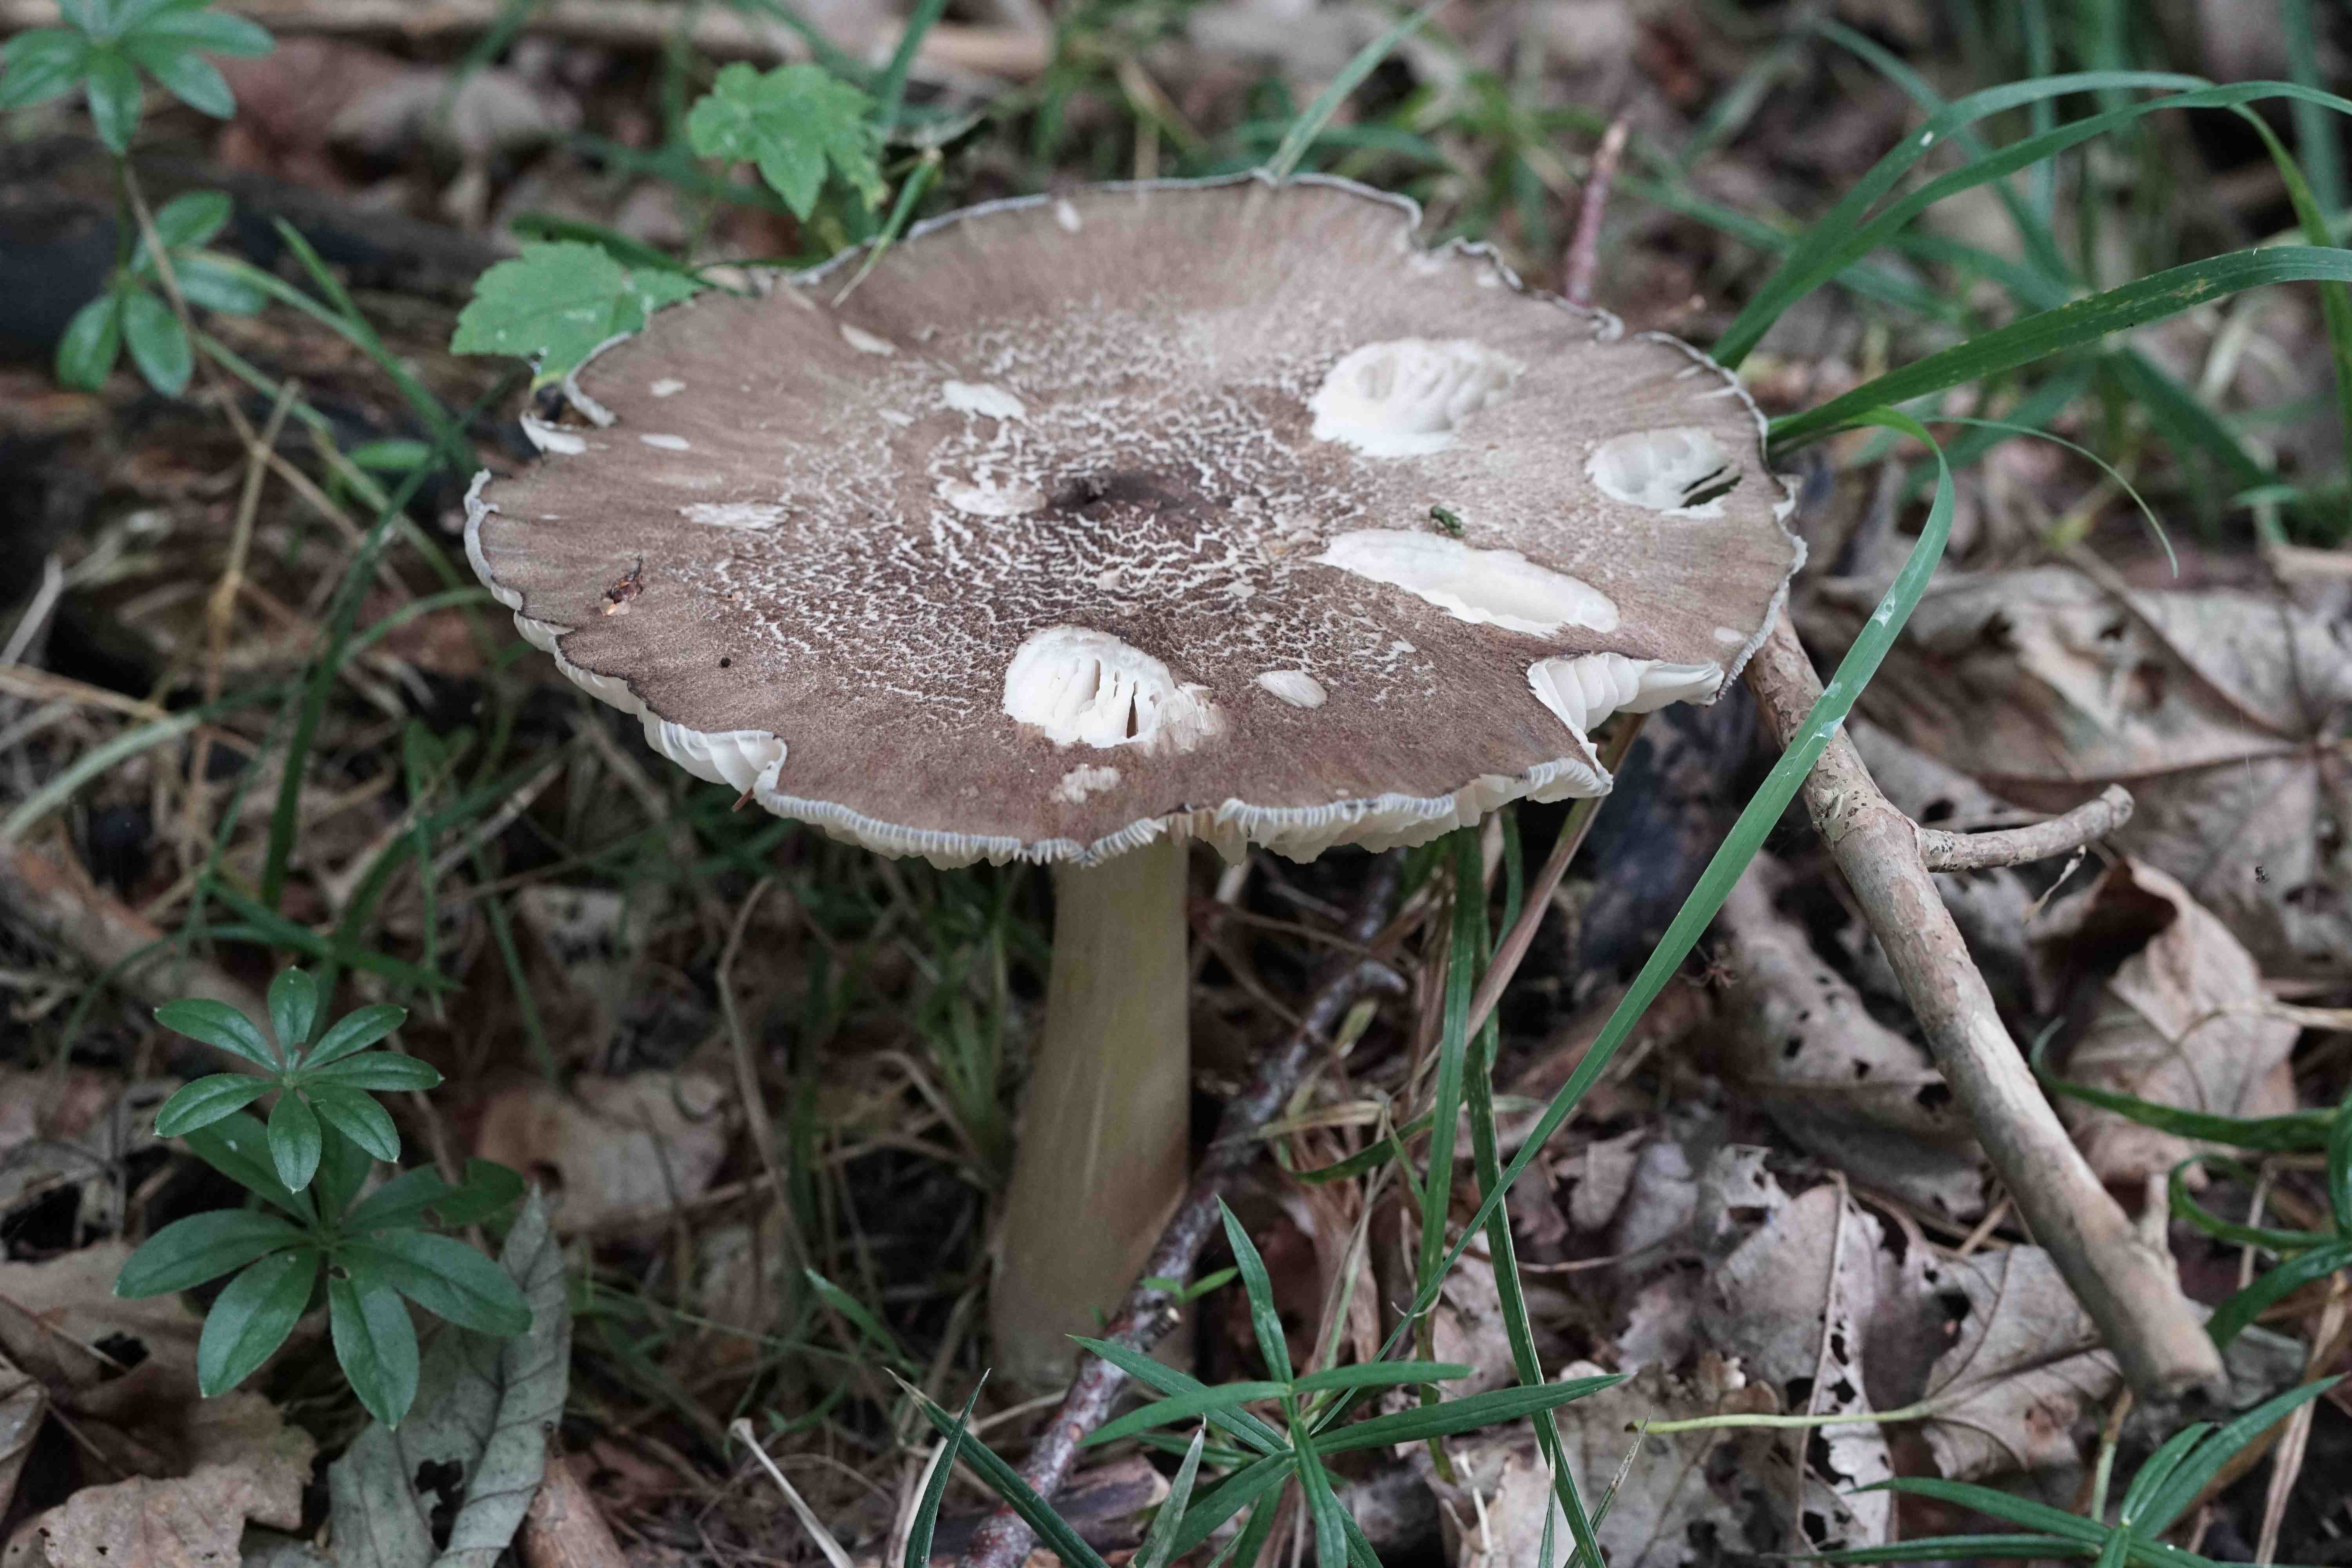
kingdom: Fungi
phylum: Basidiomycota
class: Agaricomycetes
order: Agaricales
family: Tricholomataceae
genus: Megacollybia
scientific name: Megacollybia platyphylla
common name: bredbladet væbnerhat
